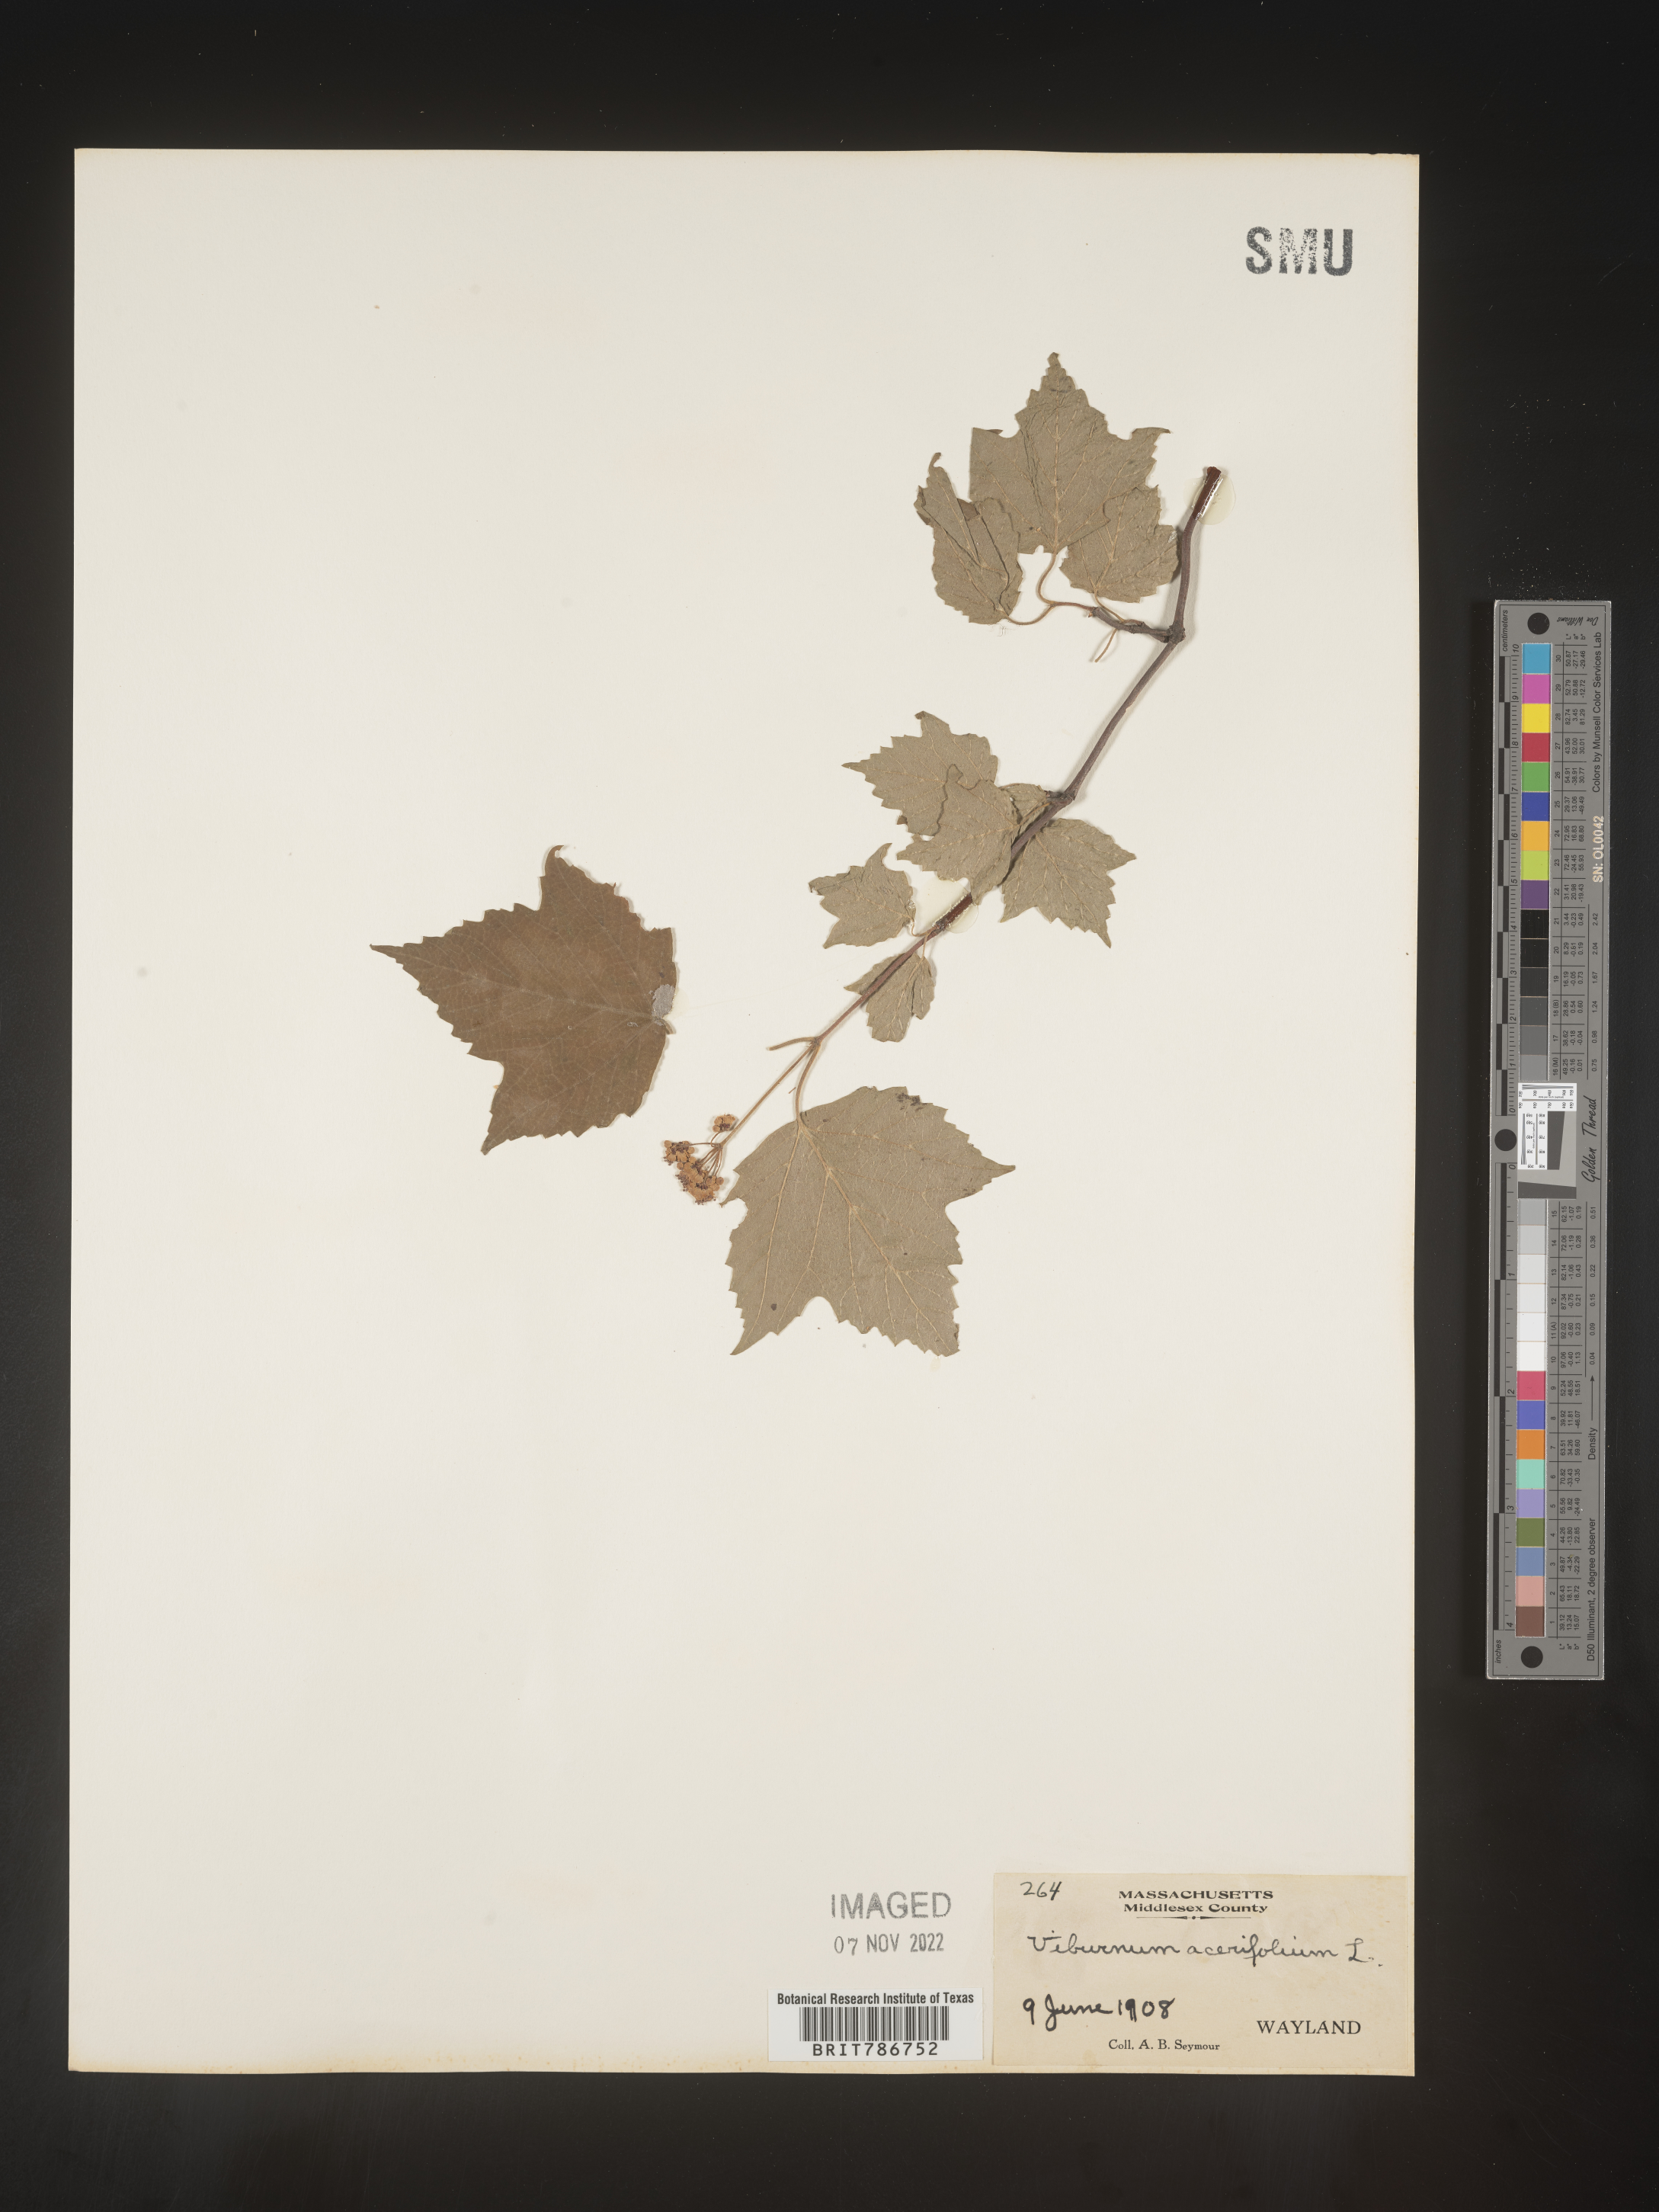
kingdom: Plantae
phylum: Tracheophyta
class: Magnoliopsida
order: Dipsacales
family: Viburnaceae
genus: Viburnum
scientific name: Viburnum acerifolium
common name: Dockmackie
